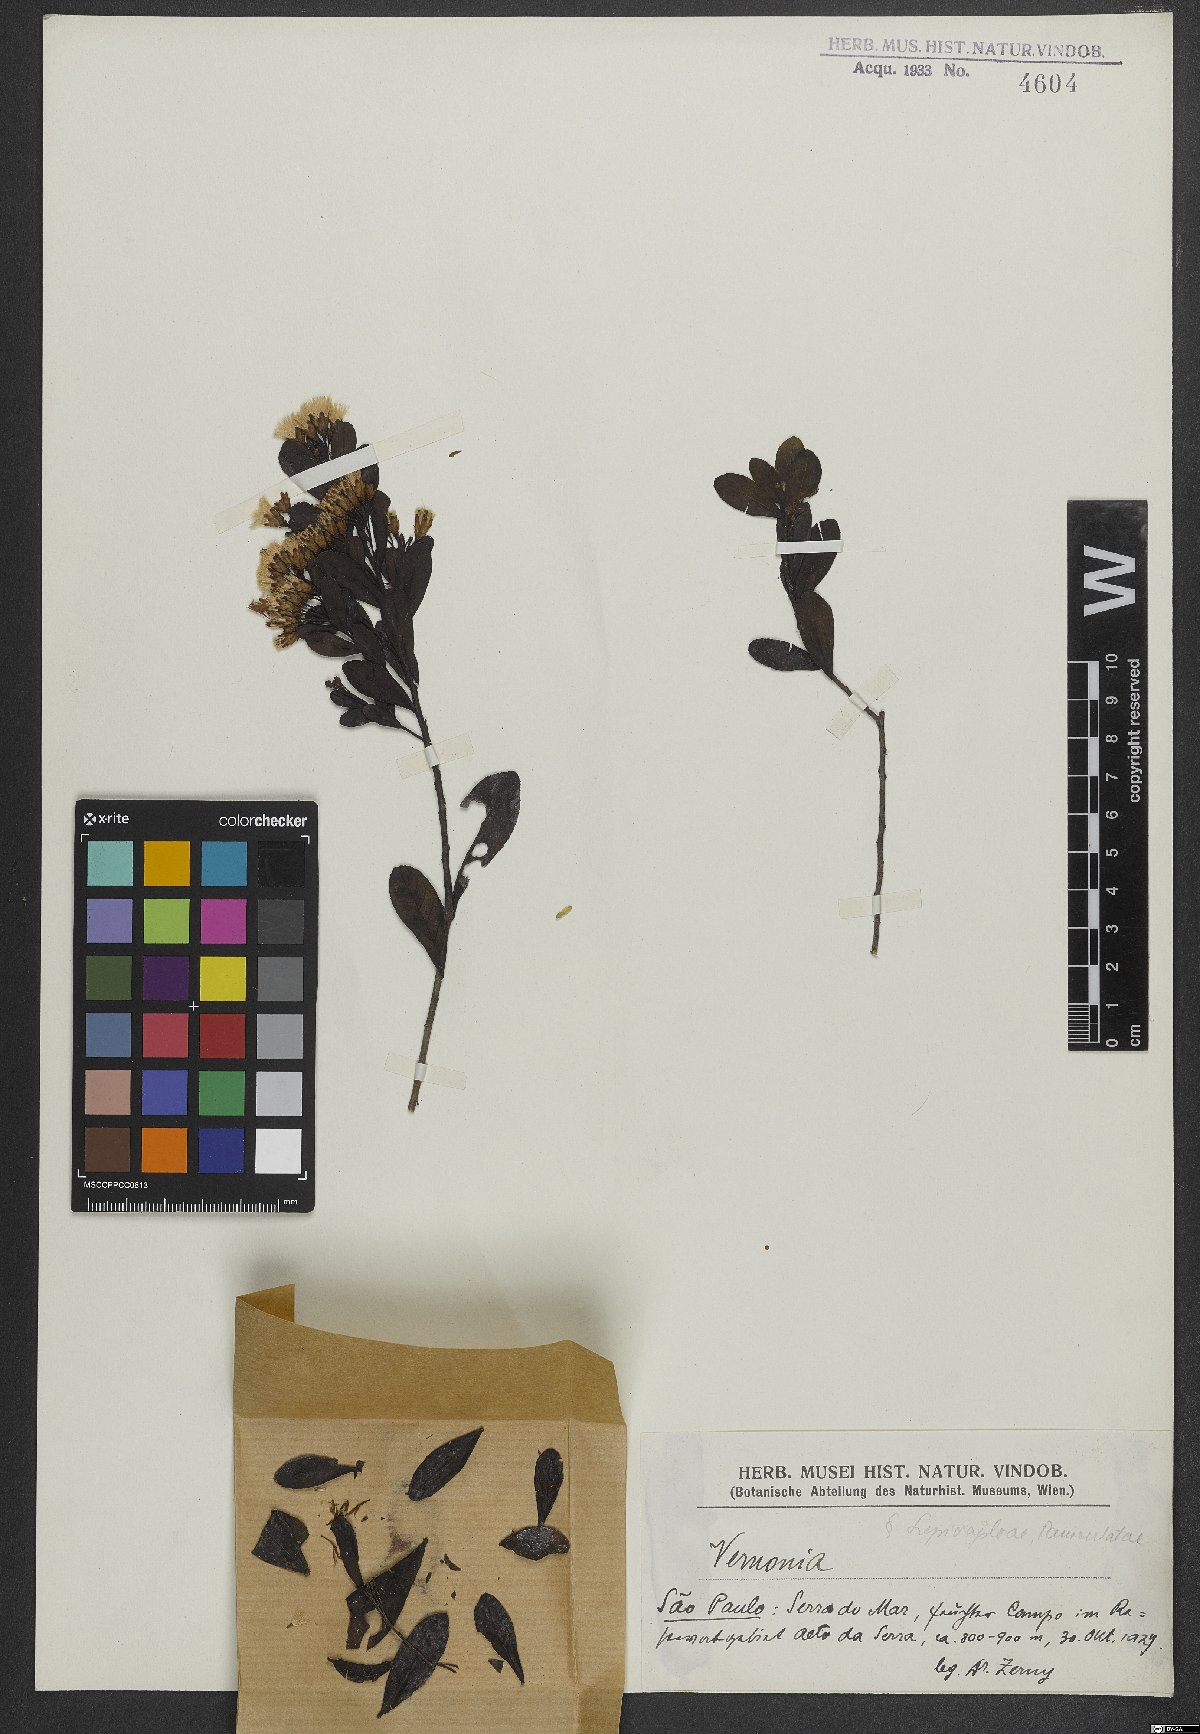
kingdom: Plantae
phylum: Tracheophyta
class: Magnoliopsida
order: Asterales
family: Asteraceae
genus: Vernonia
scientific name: Vernonia
